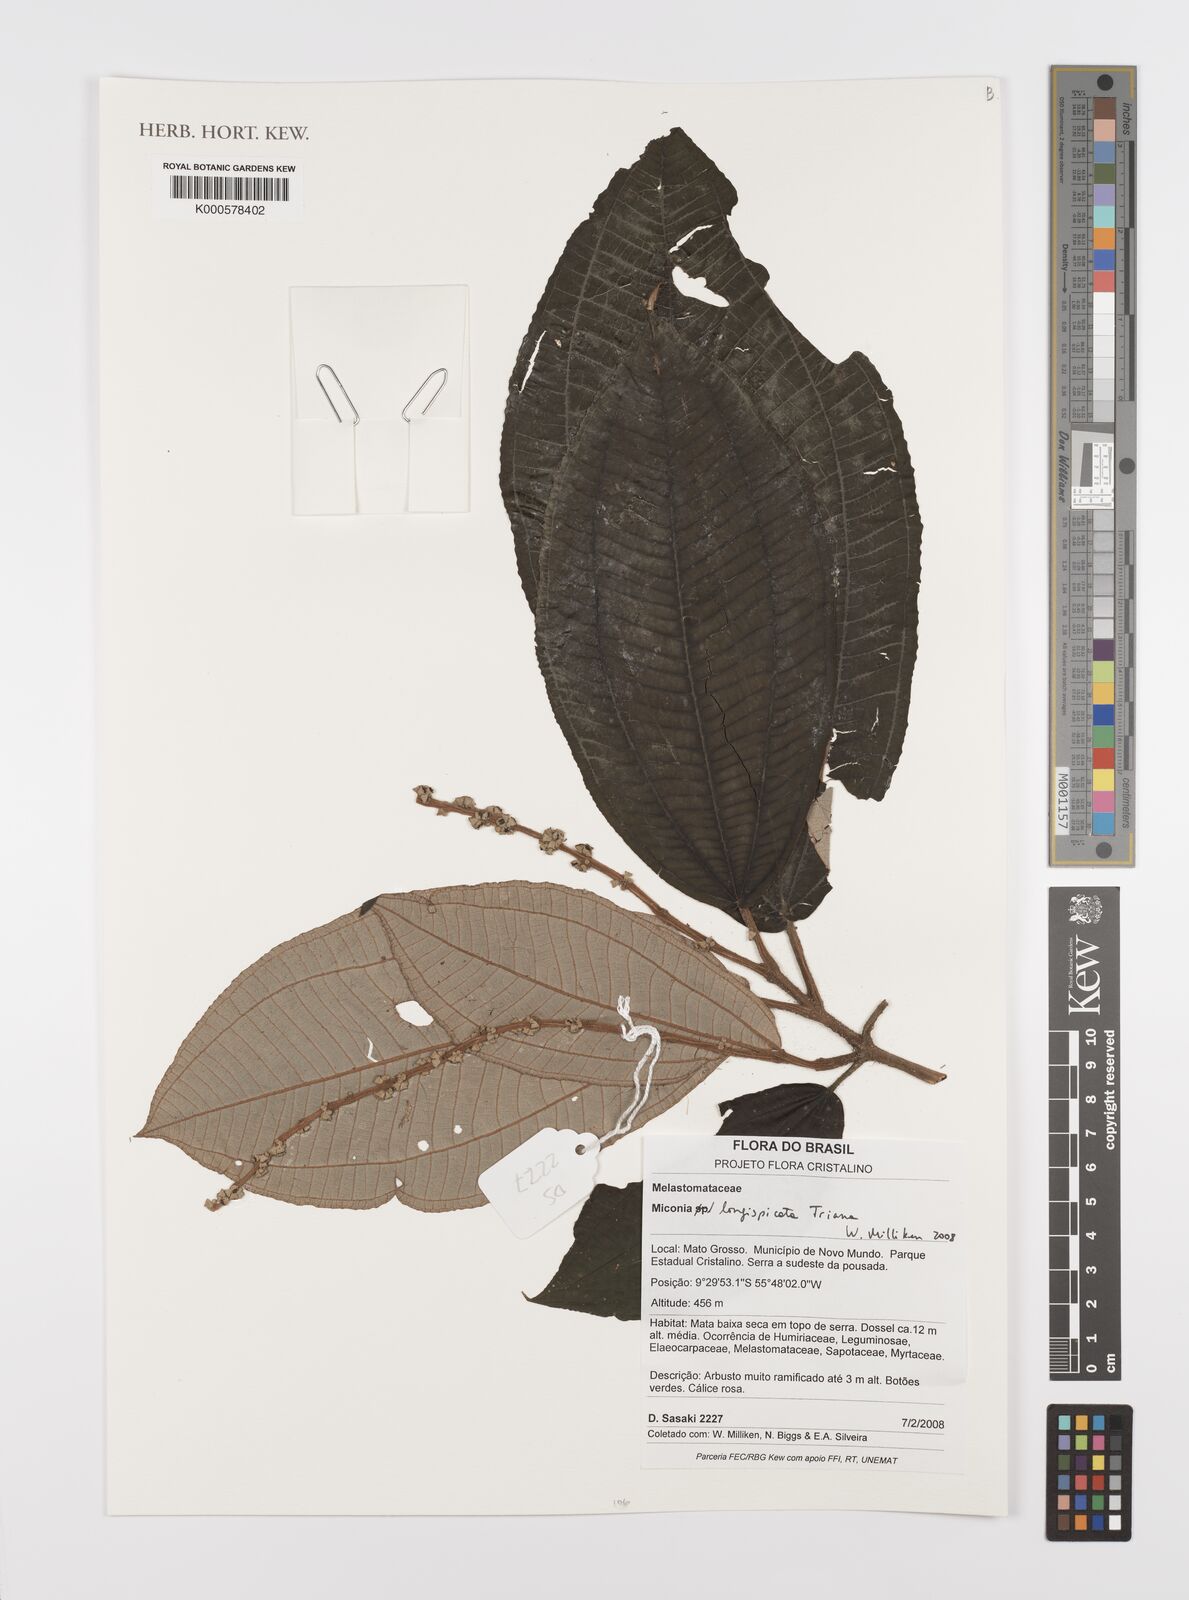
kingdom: Plantae
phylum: Tracheophyta
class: Magnoliopsida
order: Myrtales
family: Melastomataceae
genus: Miconia
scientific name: Miconia longispicata
